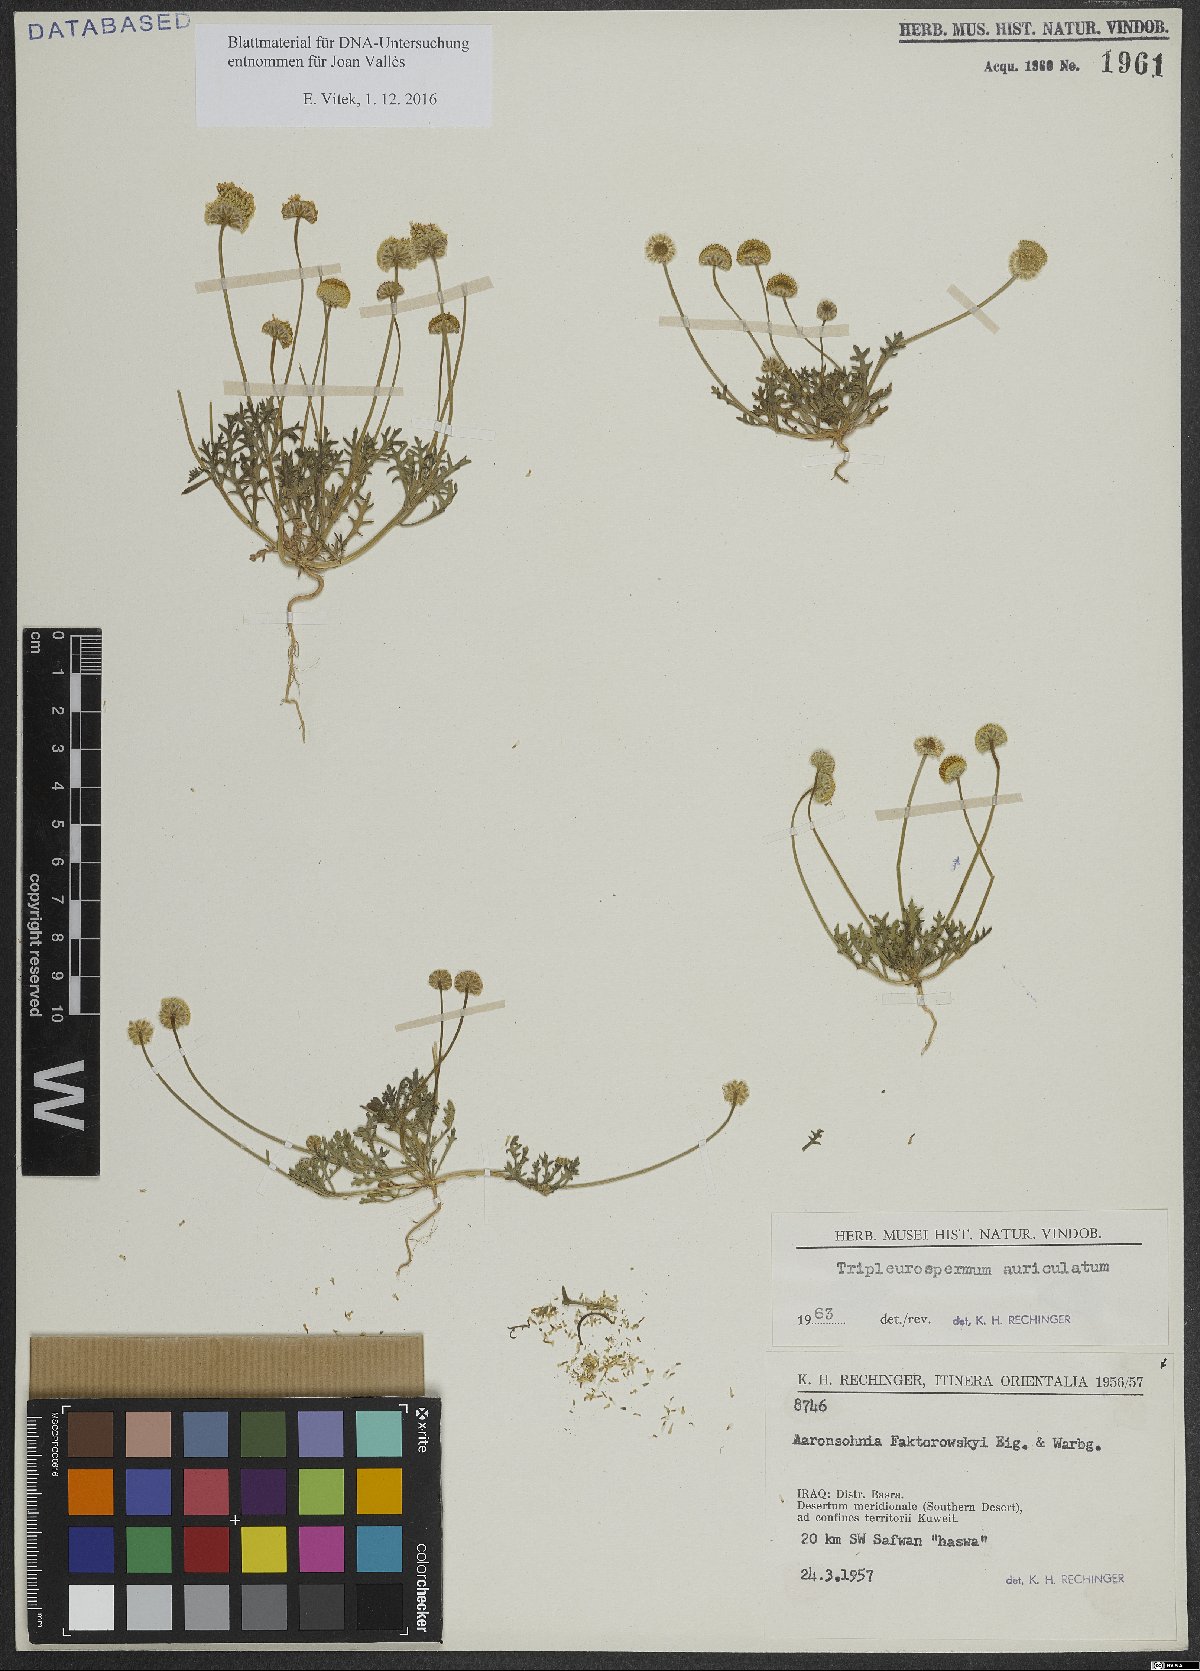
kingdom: Plantae
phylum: Tracheophyta
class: Magnoliopsida
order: Asterales
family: Asteraceae
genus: Tripleurospermum
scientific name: Tripleurospermum auriculatum
